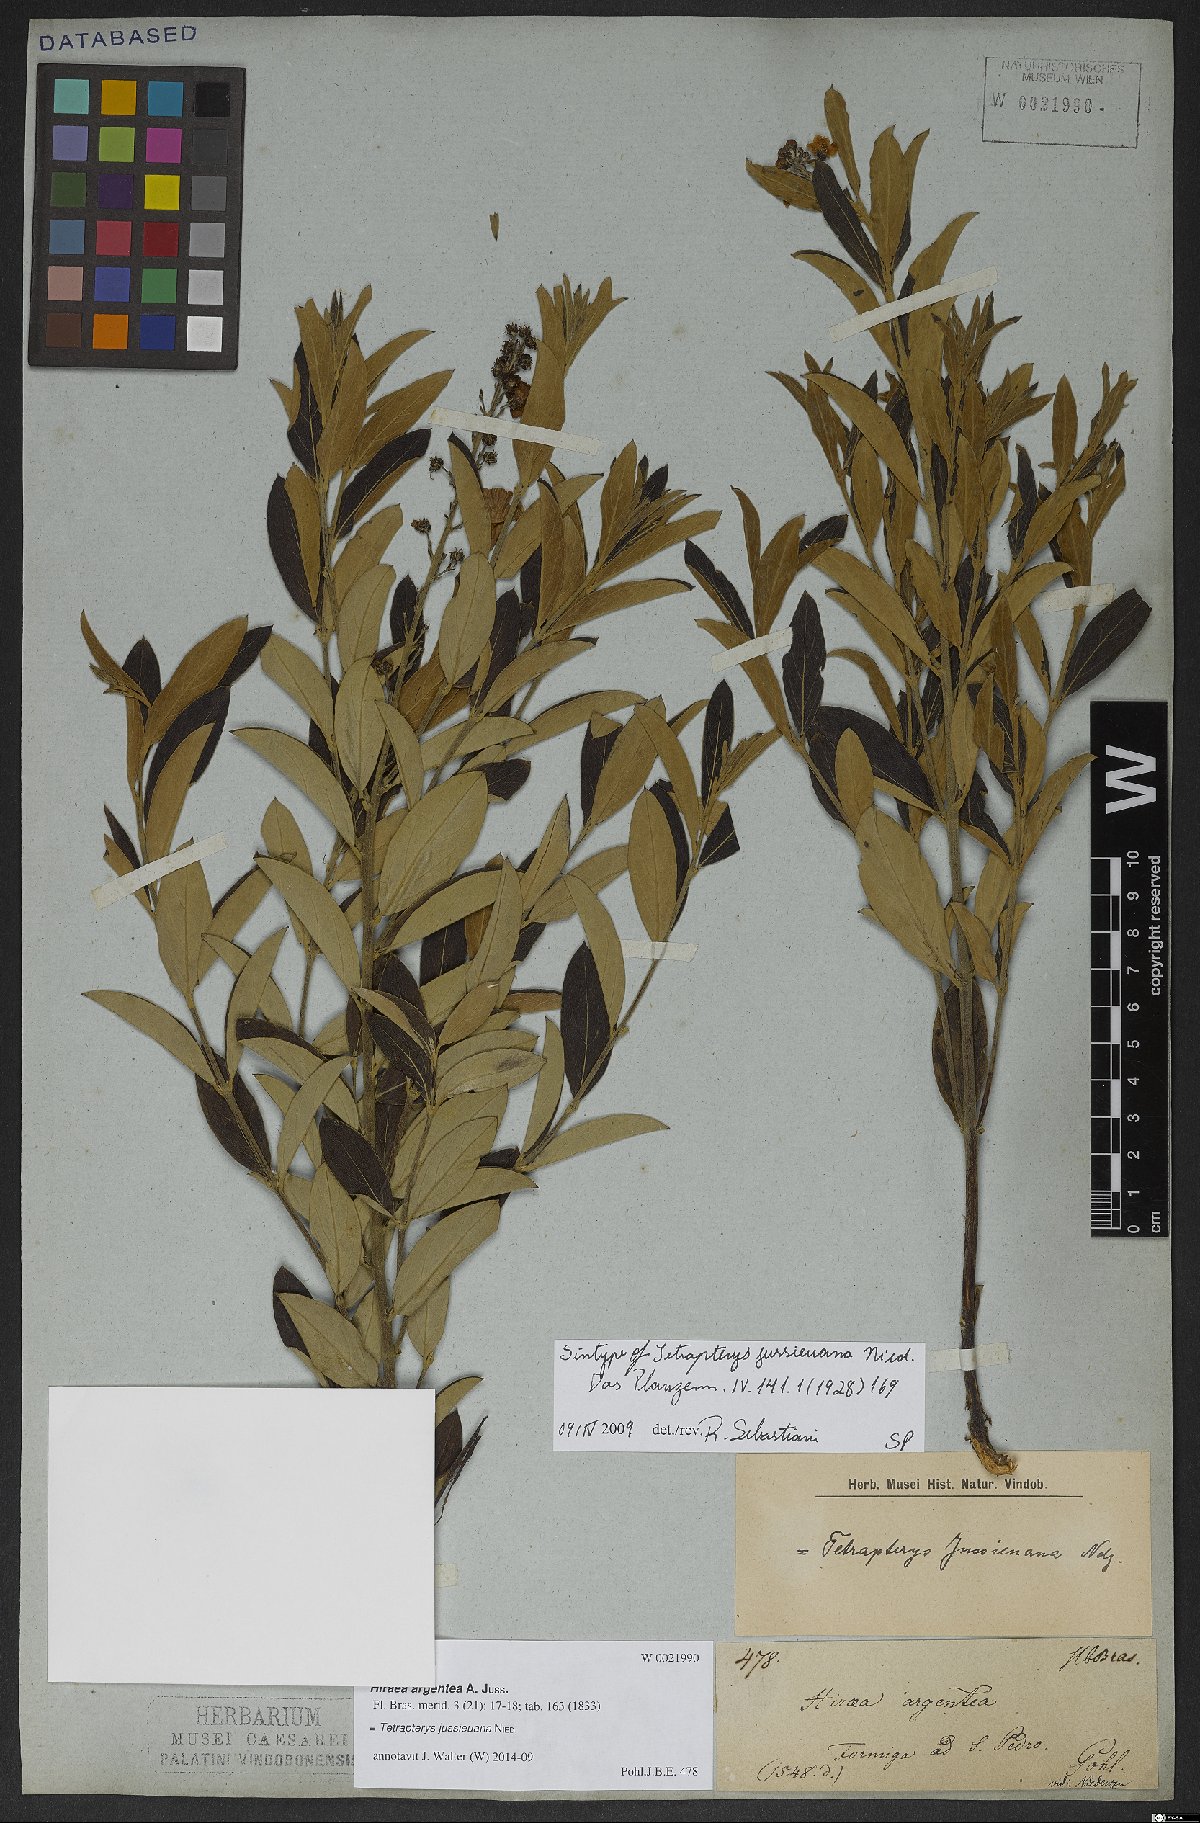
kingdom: Plantae
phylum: Tracheophyta
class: Magnoliopsida
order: Malpighiales
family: Malpighiaceae
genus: Glicophyllum
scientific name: Glicophyllum jussieuanum
